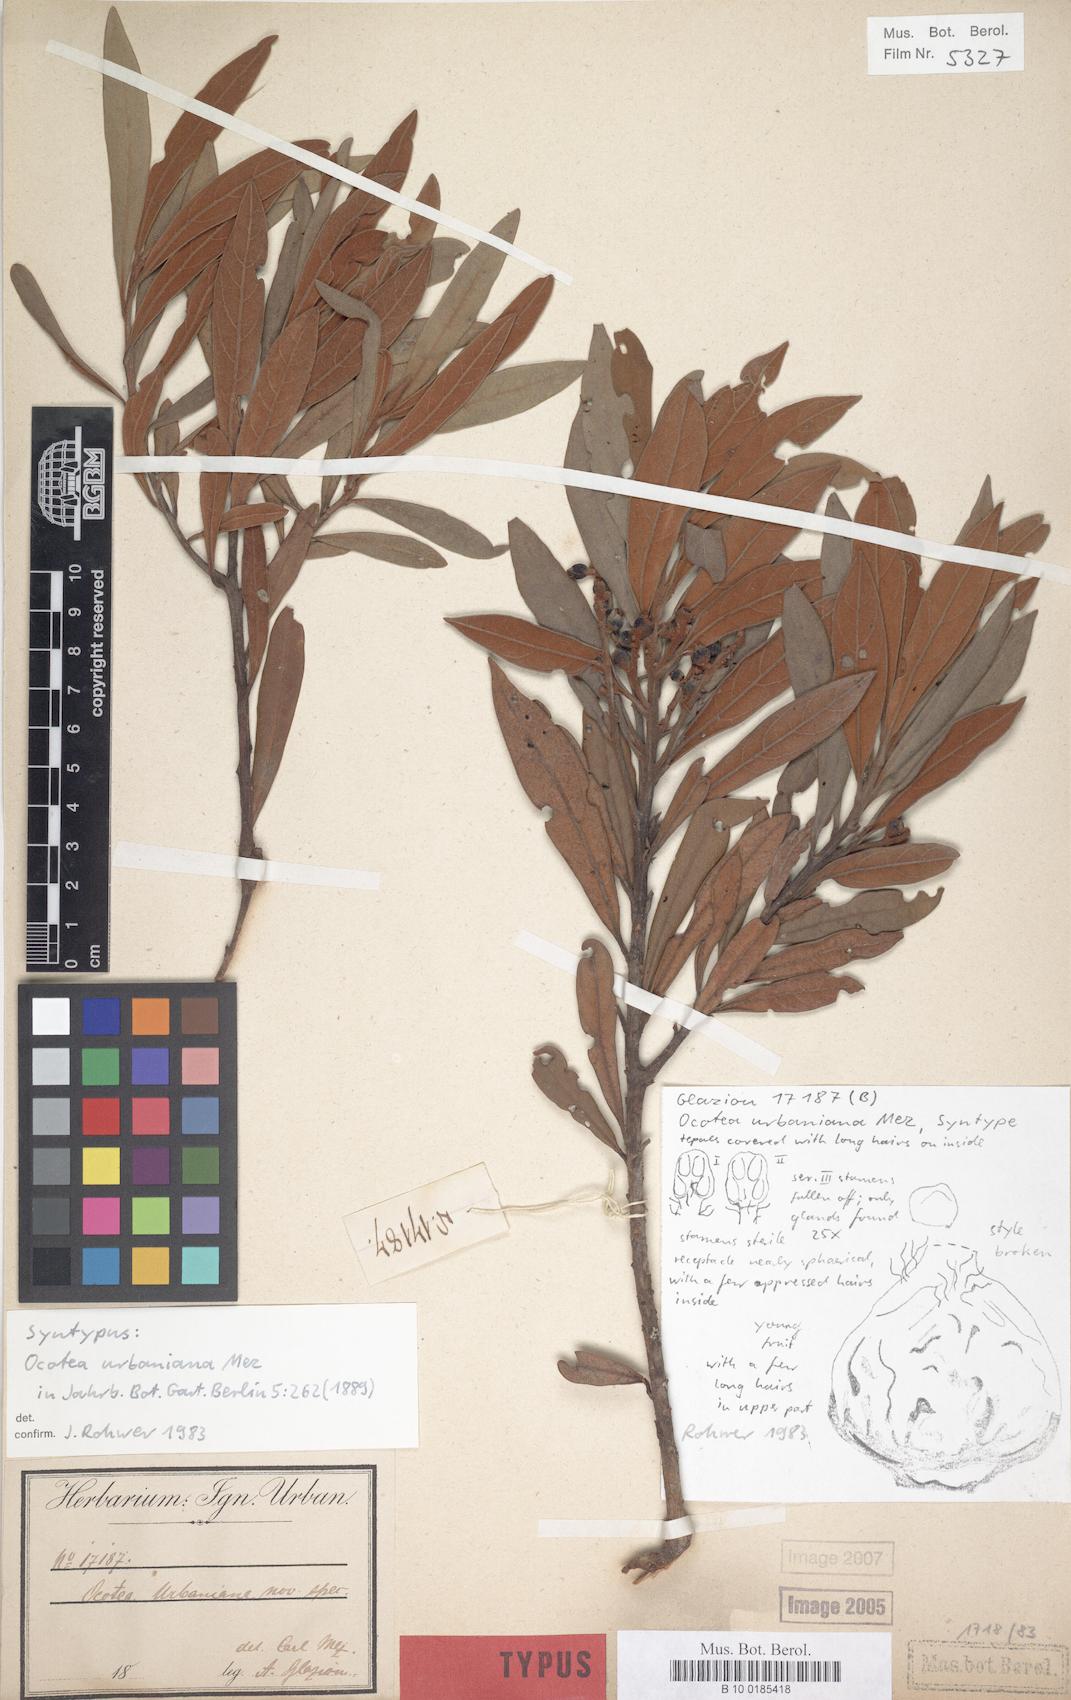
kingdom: Plantae
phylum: Tracheophyta
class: Magnoliopsida
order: Laurales
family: Lauraceae
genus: Ocotea
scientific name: Ocotea urbaniana
